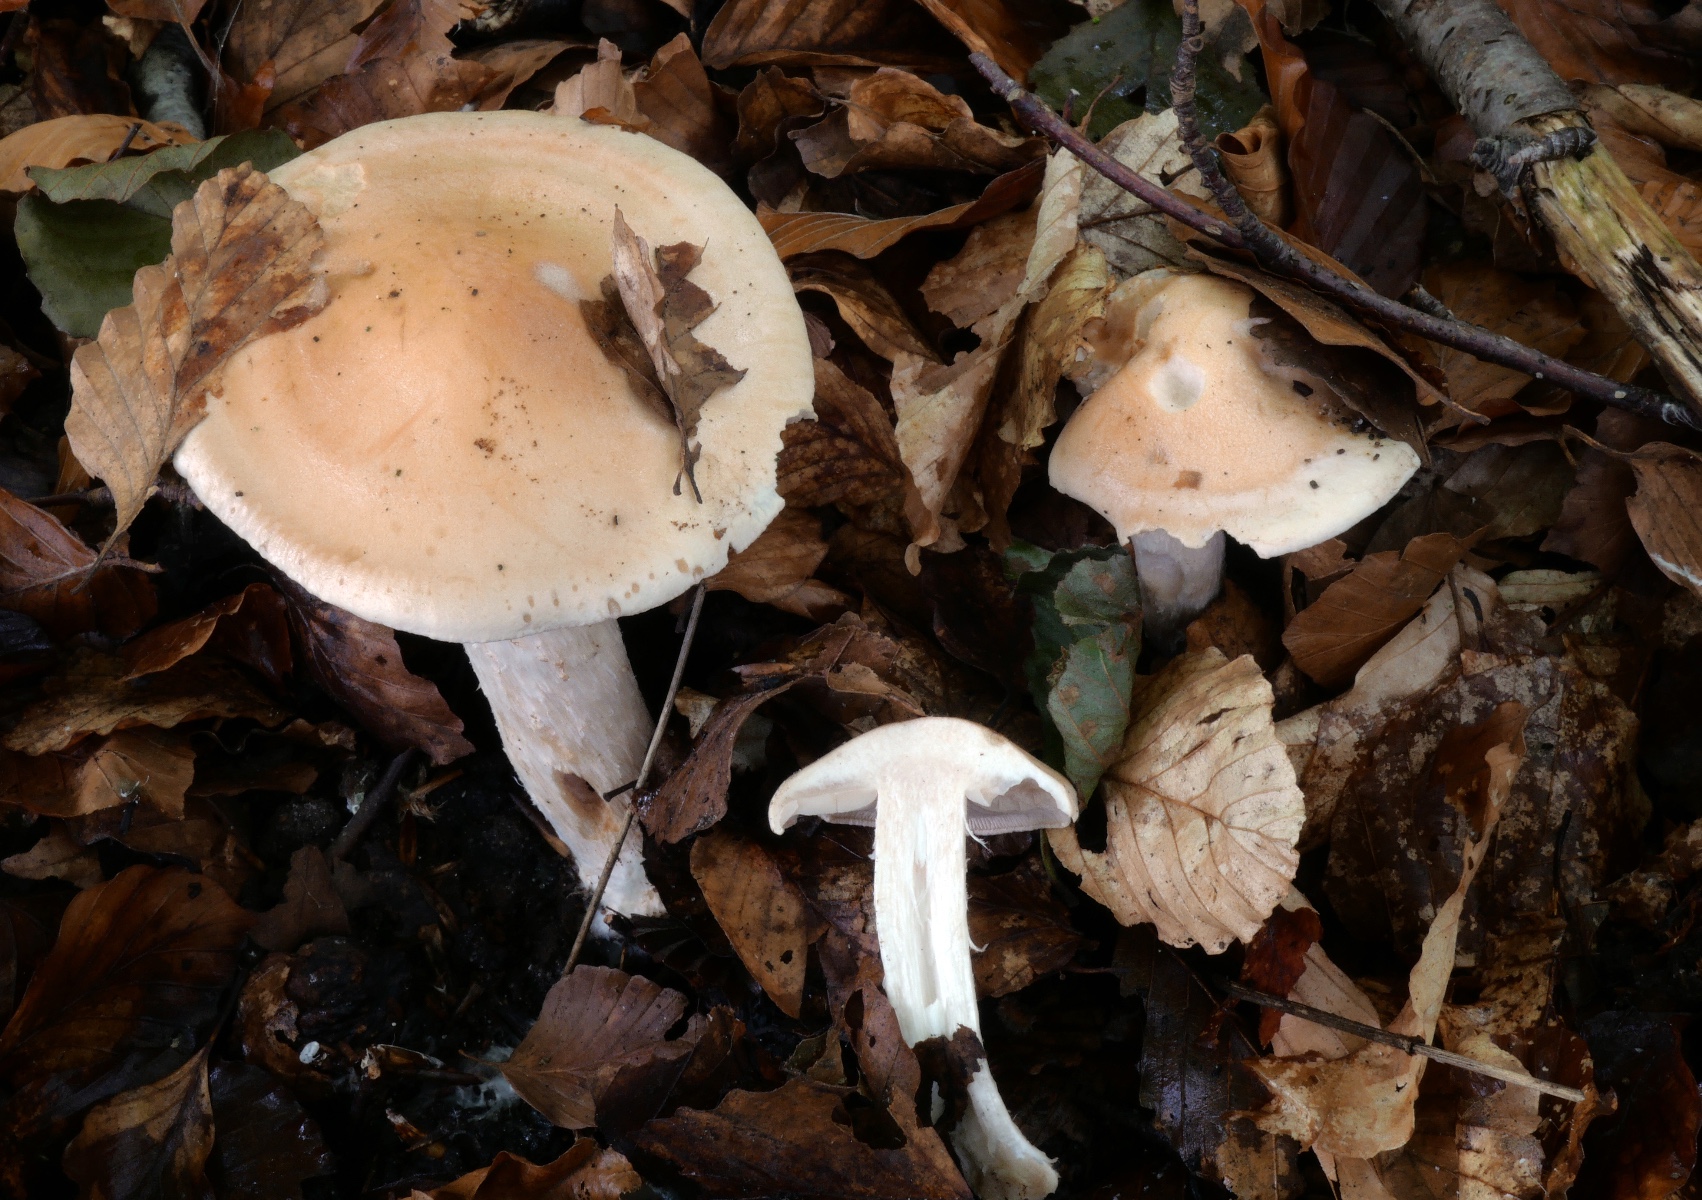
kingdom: Fungi
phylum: Basidiomycota
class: Agaricomycetes
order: Agaricales
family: Hymenogastraceae
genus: Hebeloma
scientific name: Hebeloma sinapizans
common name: ræddike-tåreblad
